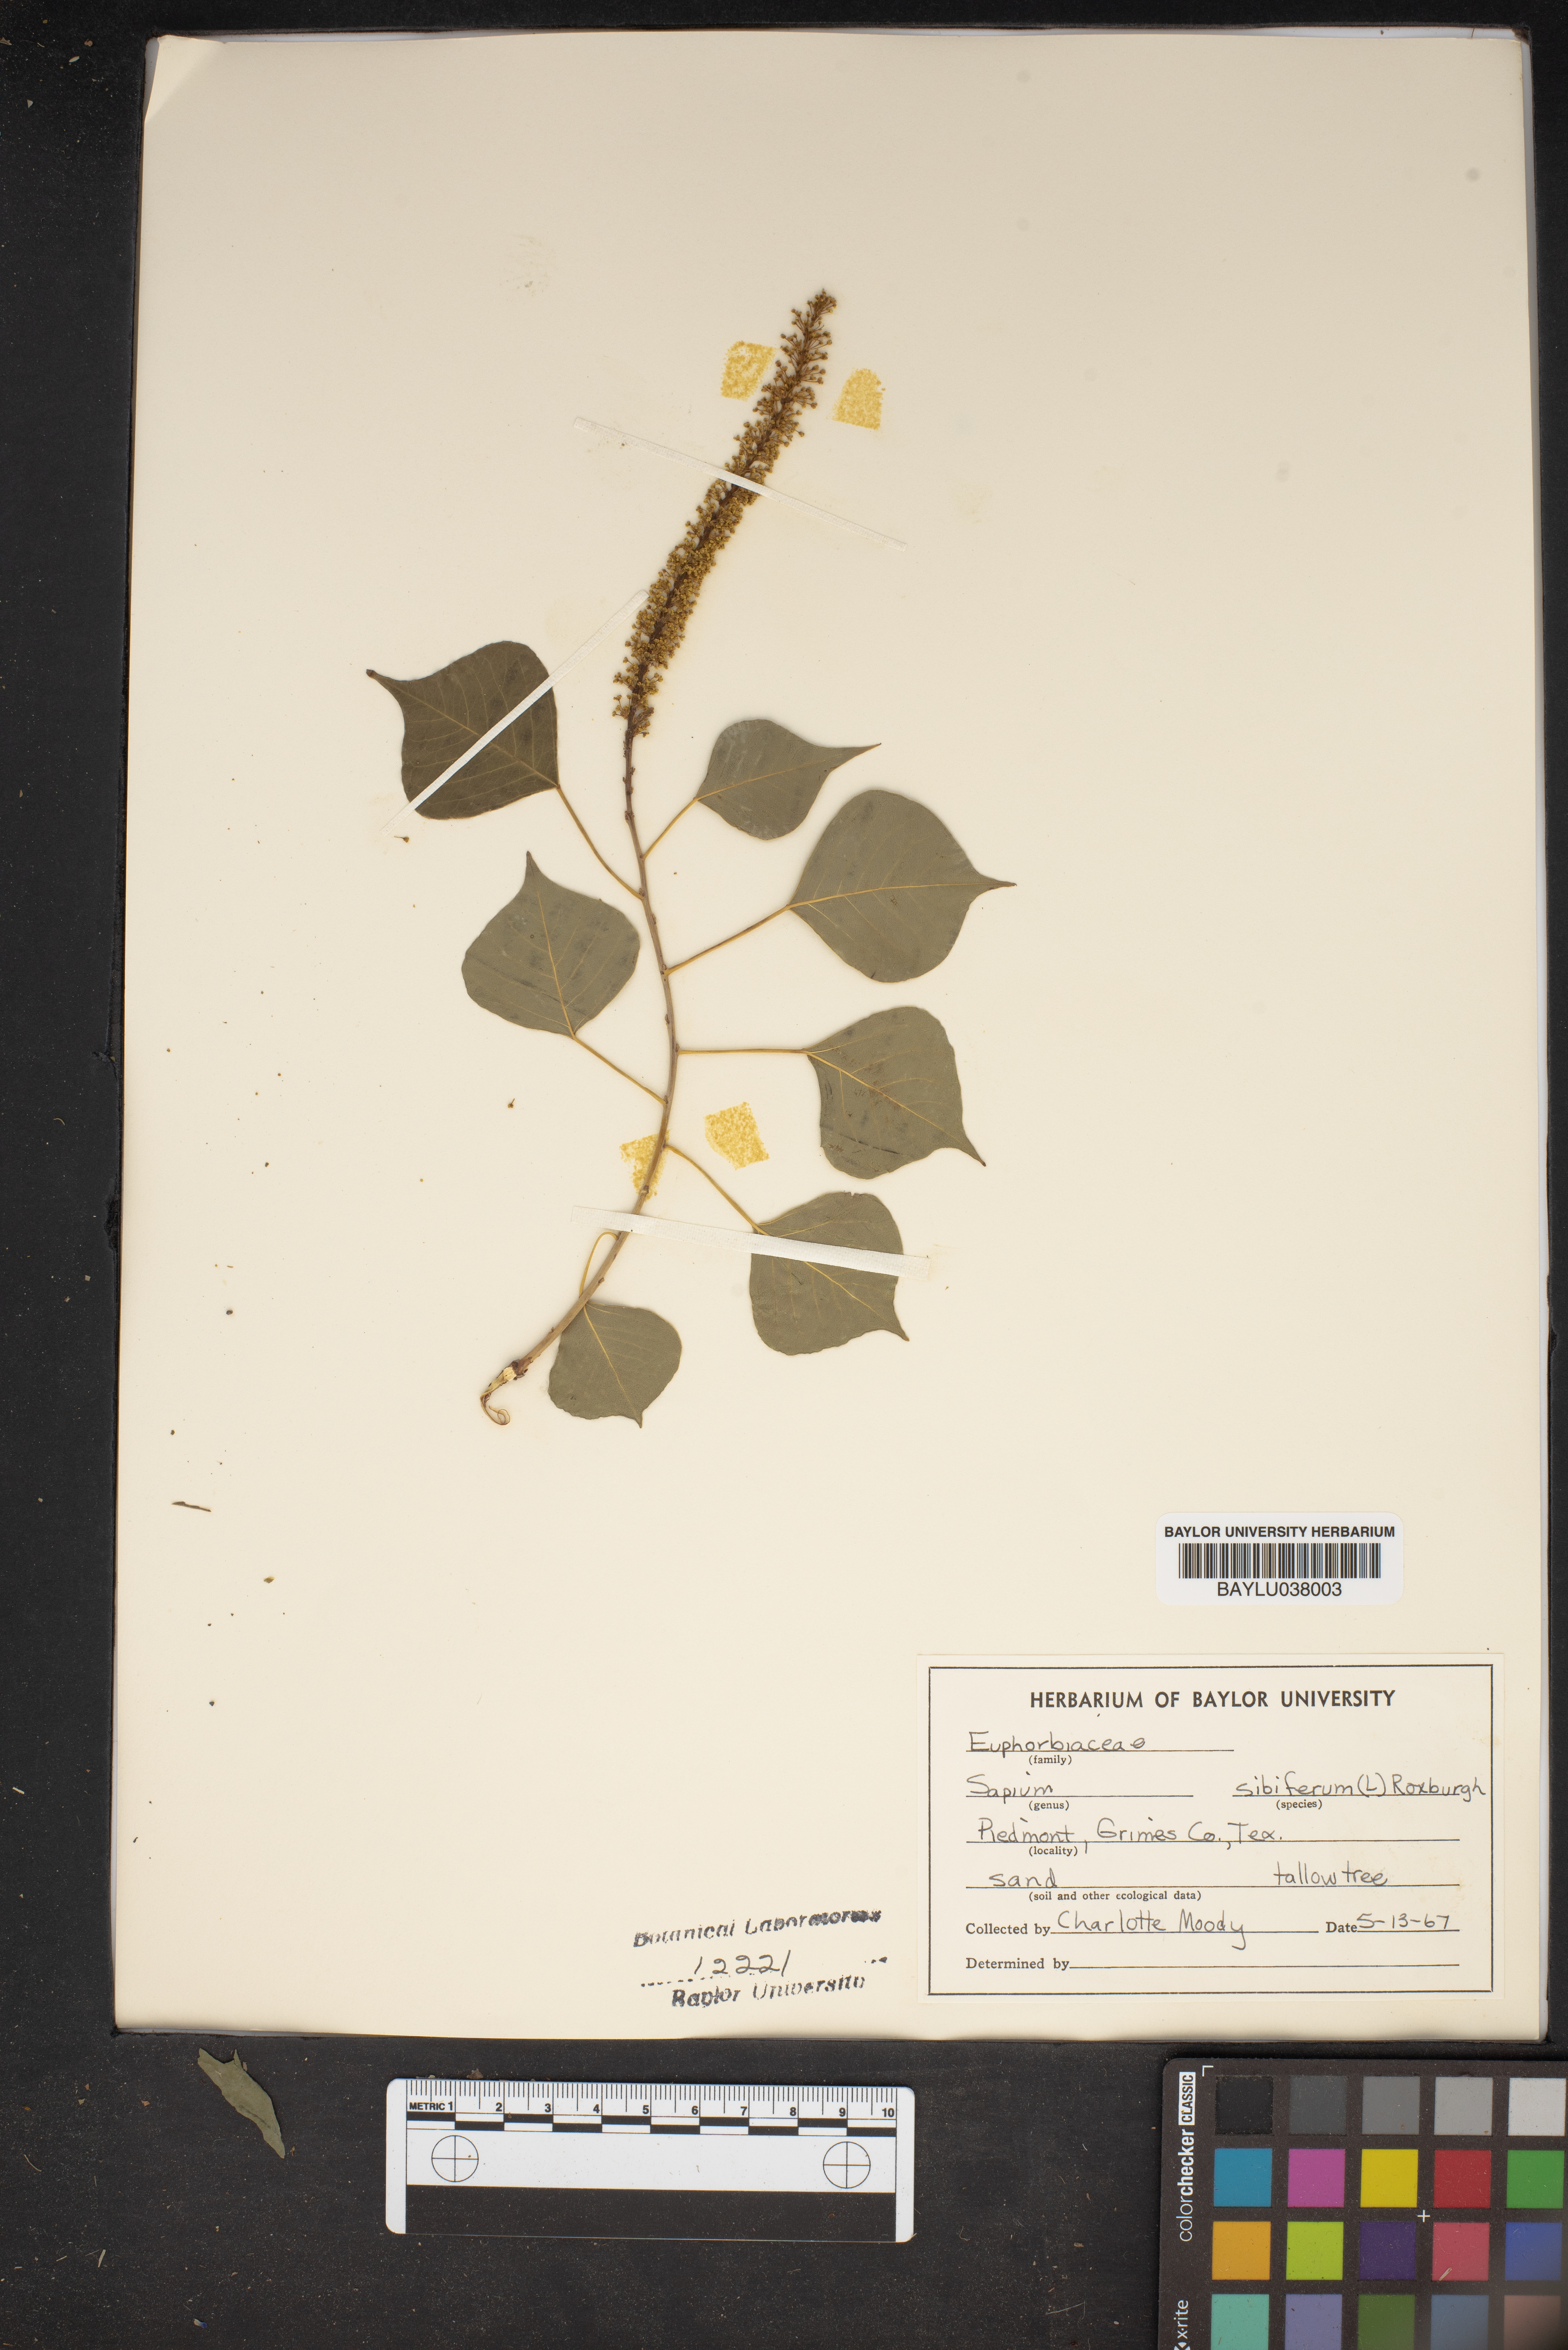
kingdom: Plantae
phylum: Tracheophyta
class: Magnoliopsida
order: Malpighiales
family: Euphorbiaceae
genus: Triadica
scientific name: Triadica sebifera
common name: Chinese tallow
